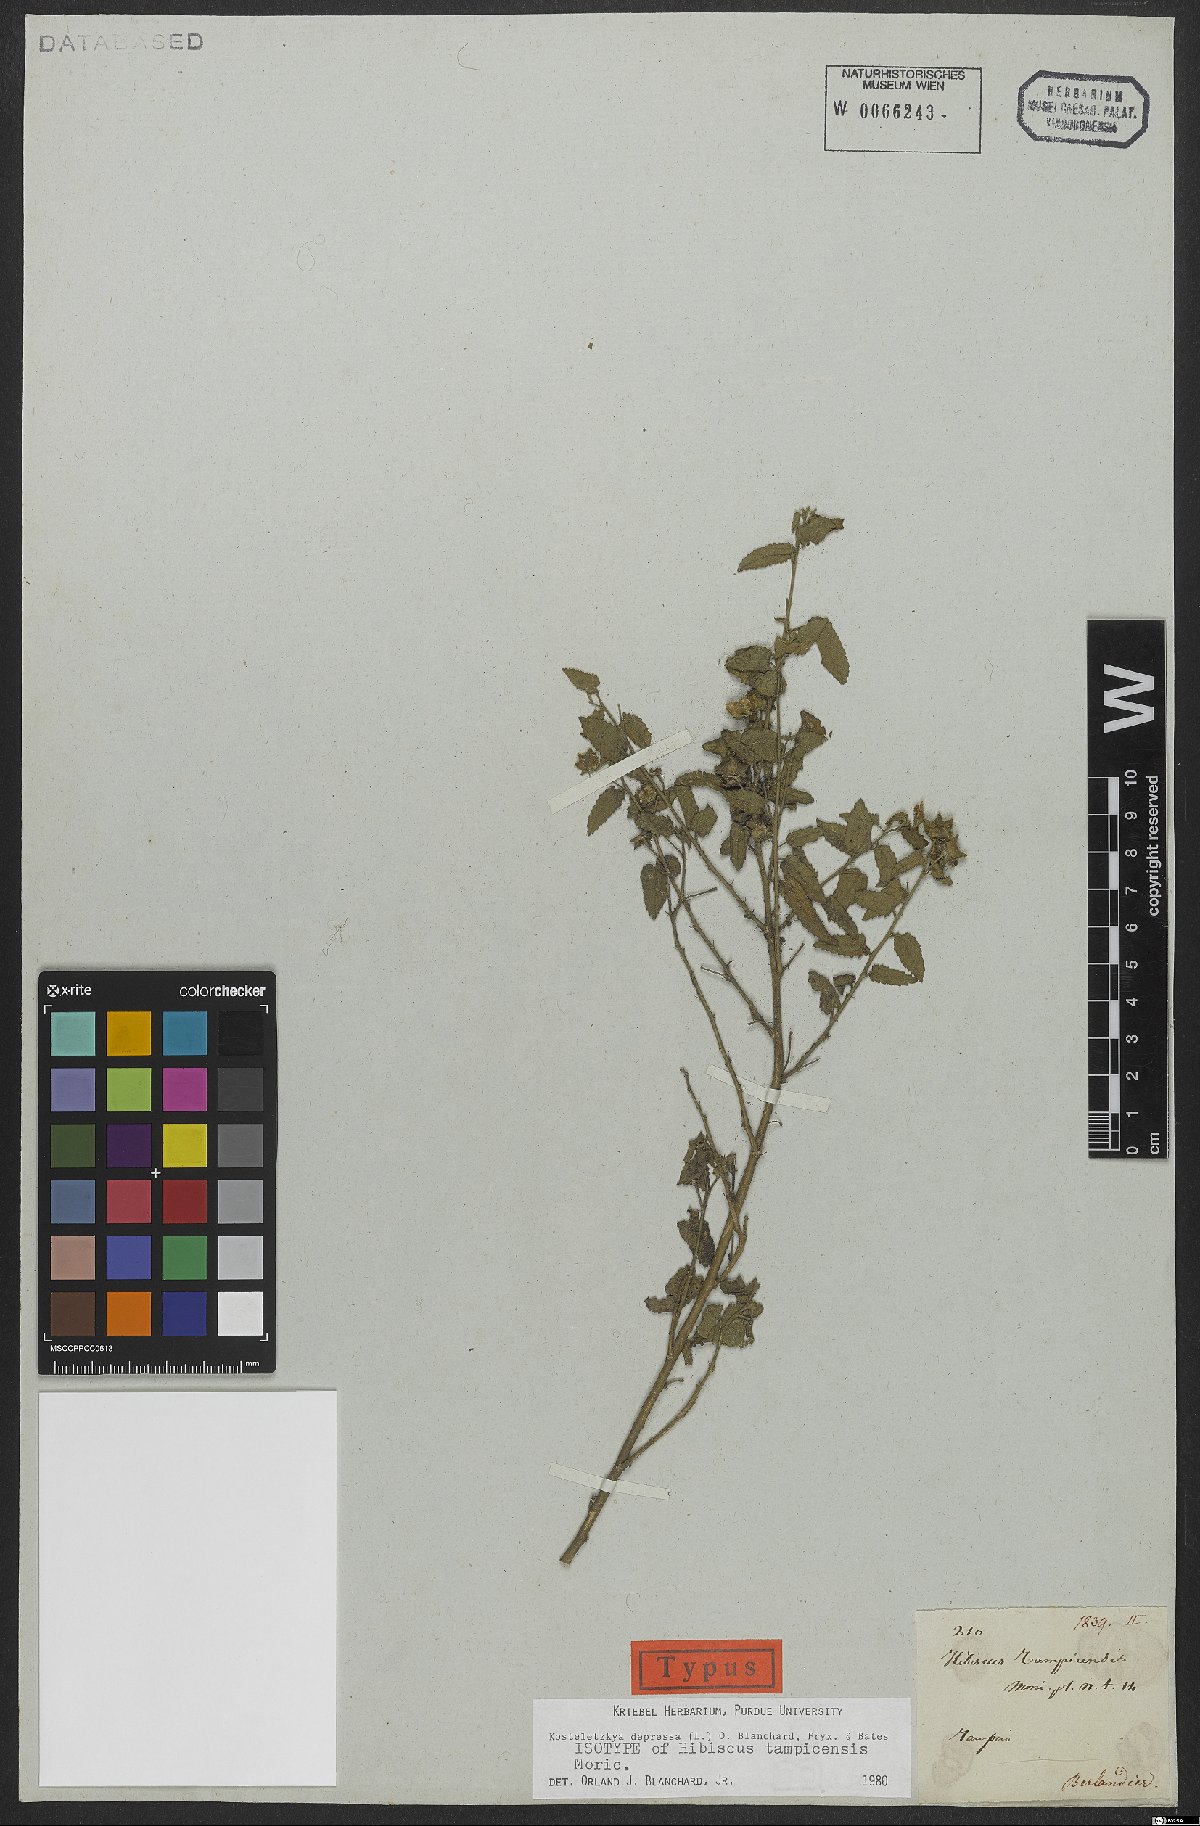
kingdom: Plantae
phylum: Tracheophyta
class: Magnoliopsida
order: Malvales
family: Malvaceae
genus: Kosteletzkya
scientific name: Kosteletzkya depressa
